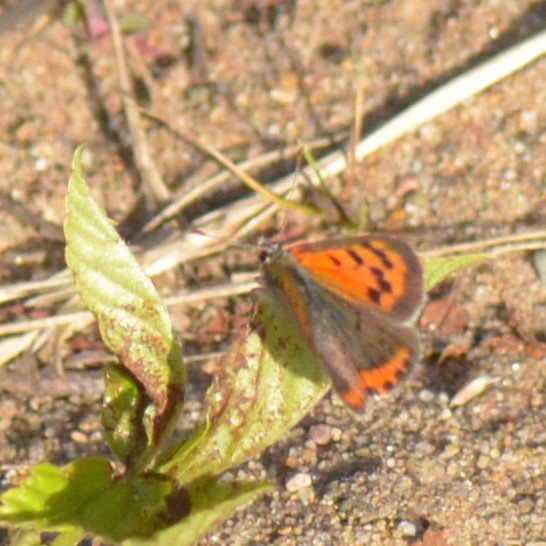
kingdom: Animalia
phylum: Arthropoda
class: Insecta
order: Lepidoptera
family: Lycaenidae
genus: Lycaena
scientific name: Lycaena phlaeas
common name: American Copper
